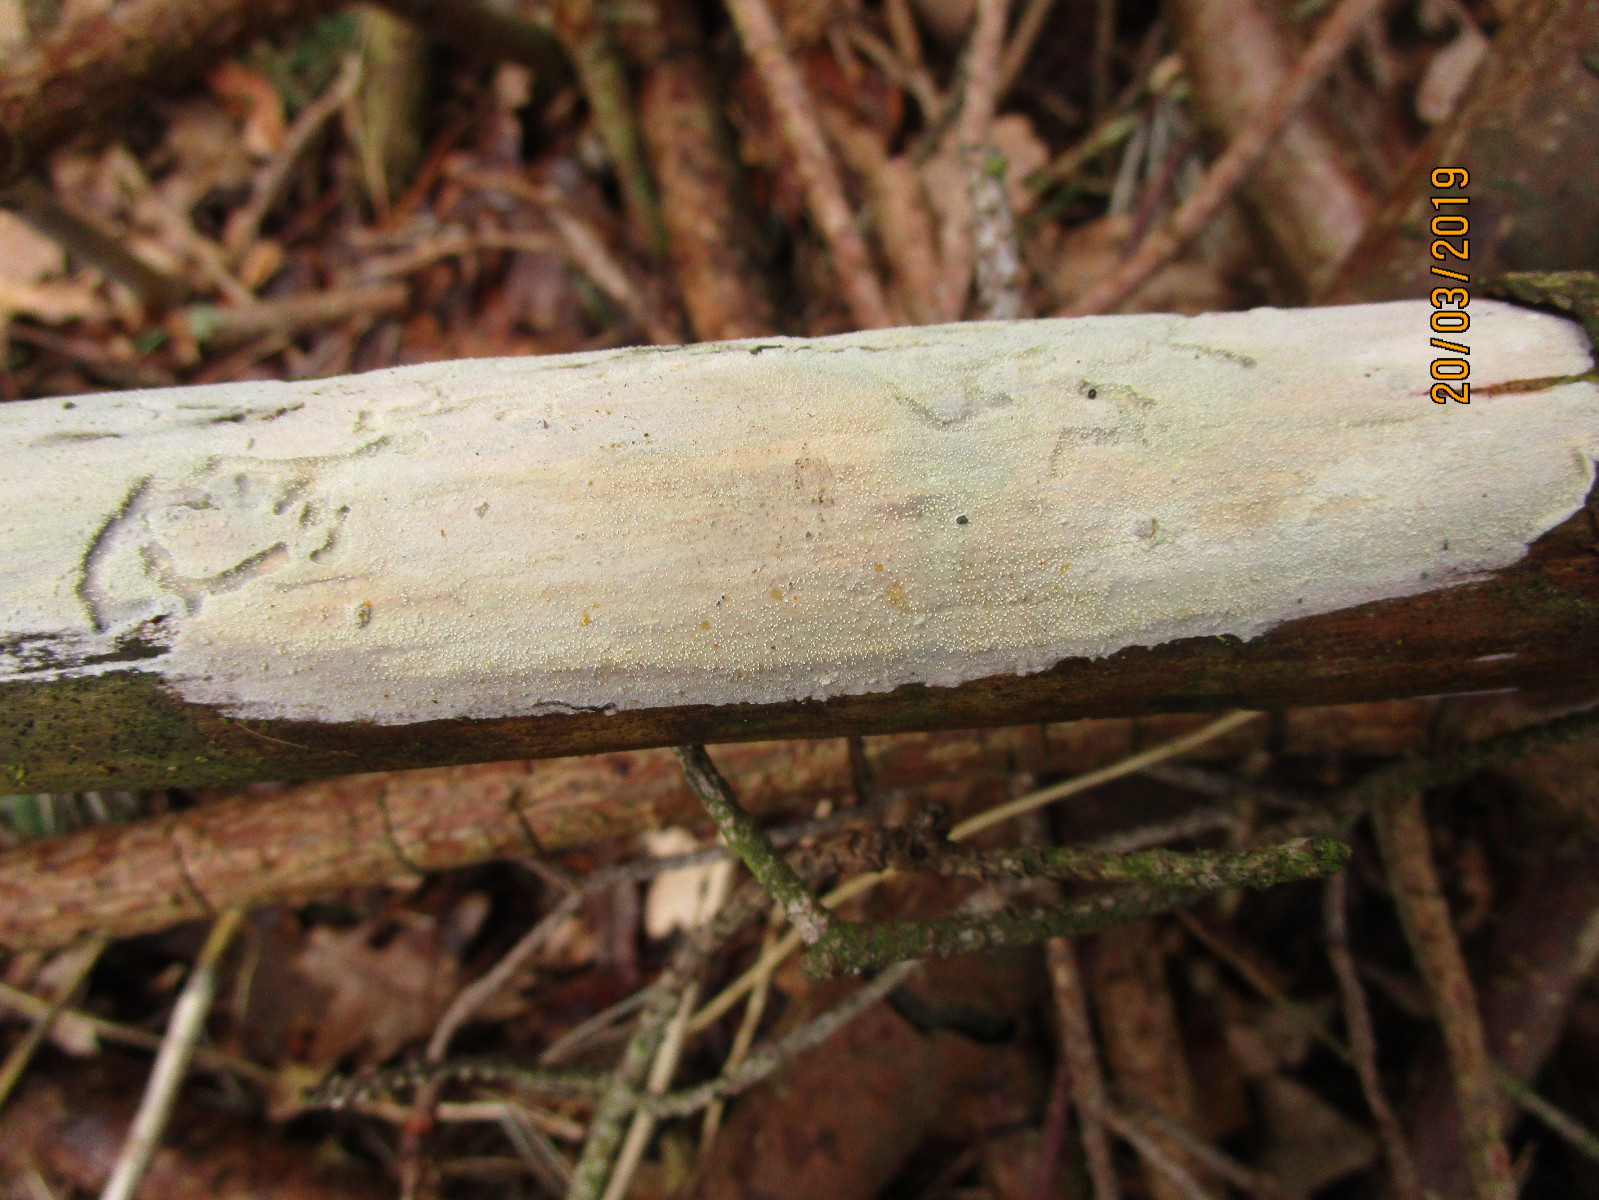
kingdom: Fungi
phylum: Basidiomycota
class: Agaricomycetes
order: Hymenochaetales
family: Schizoporaceae
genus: Xylodon
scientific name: Xylodon
